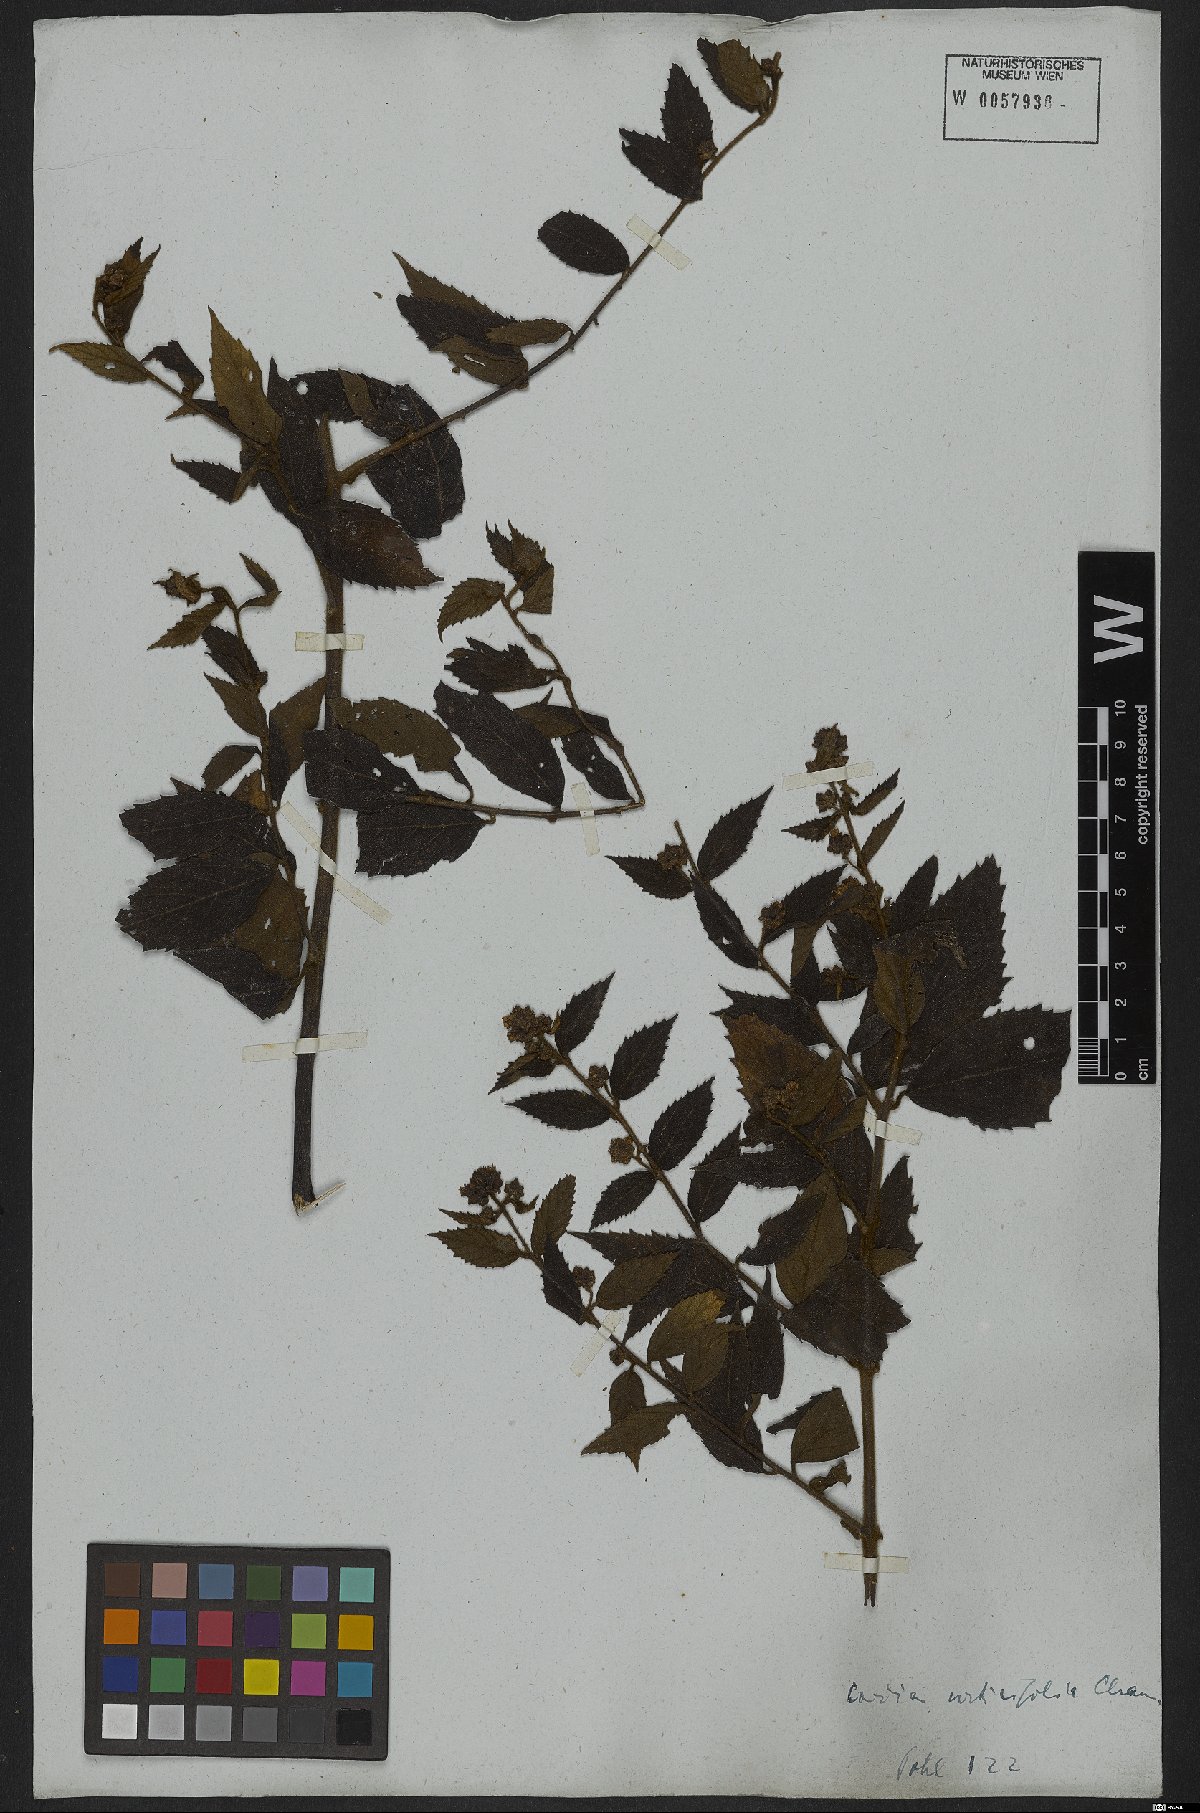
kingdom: Plantae
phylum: Tracheophyta
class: Magnoliopsida
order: Boraginales
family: Cordiaceae
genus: Varronia
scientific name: Varronia polycephala
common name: Black-sage
